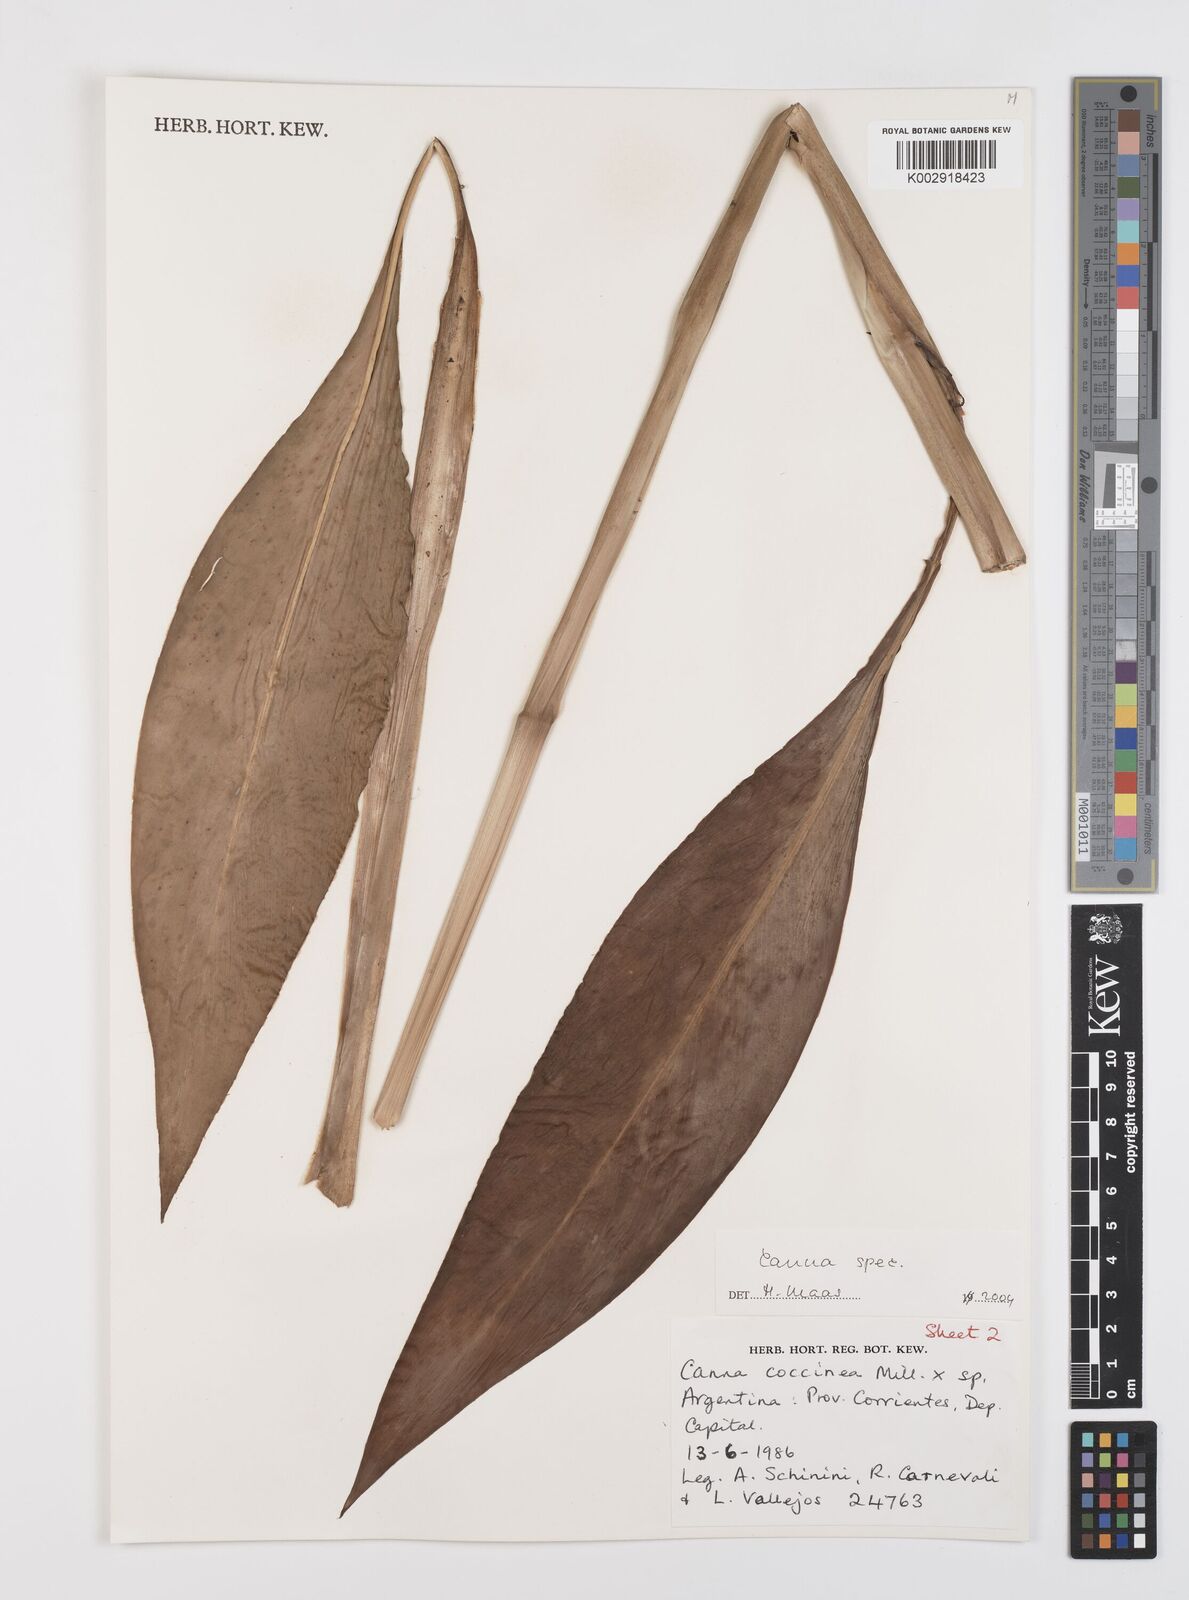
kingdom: Plantae
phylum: Tracheophyta
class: Liliopsida
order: Zingiberales
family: Cannaceae
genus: Canna
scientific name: Canna paniculata
